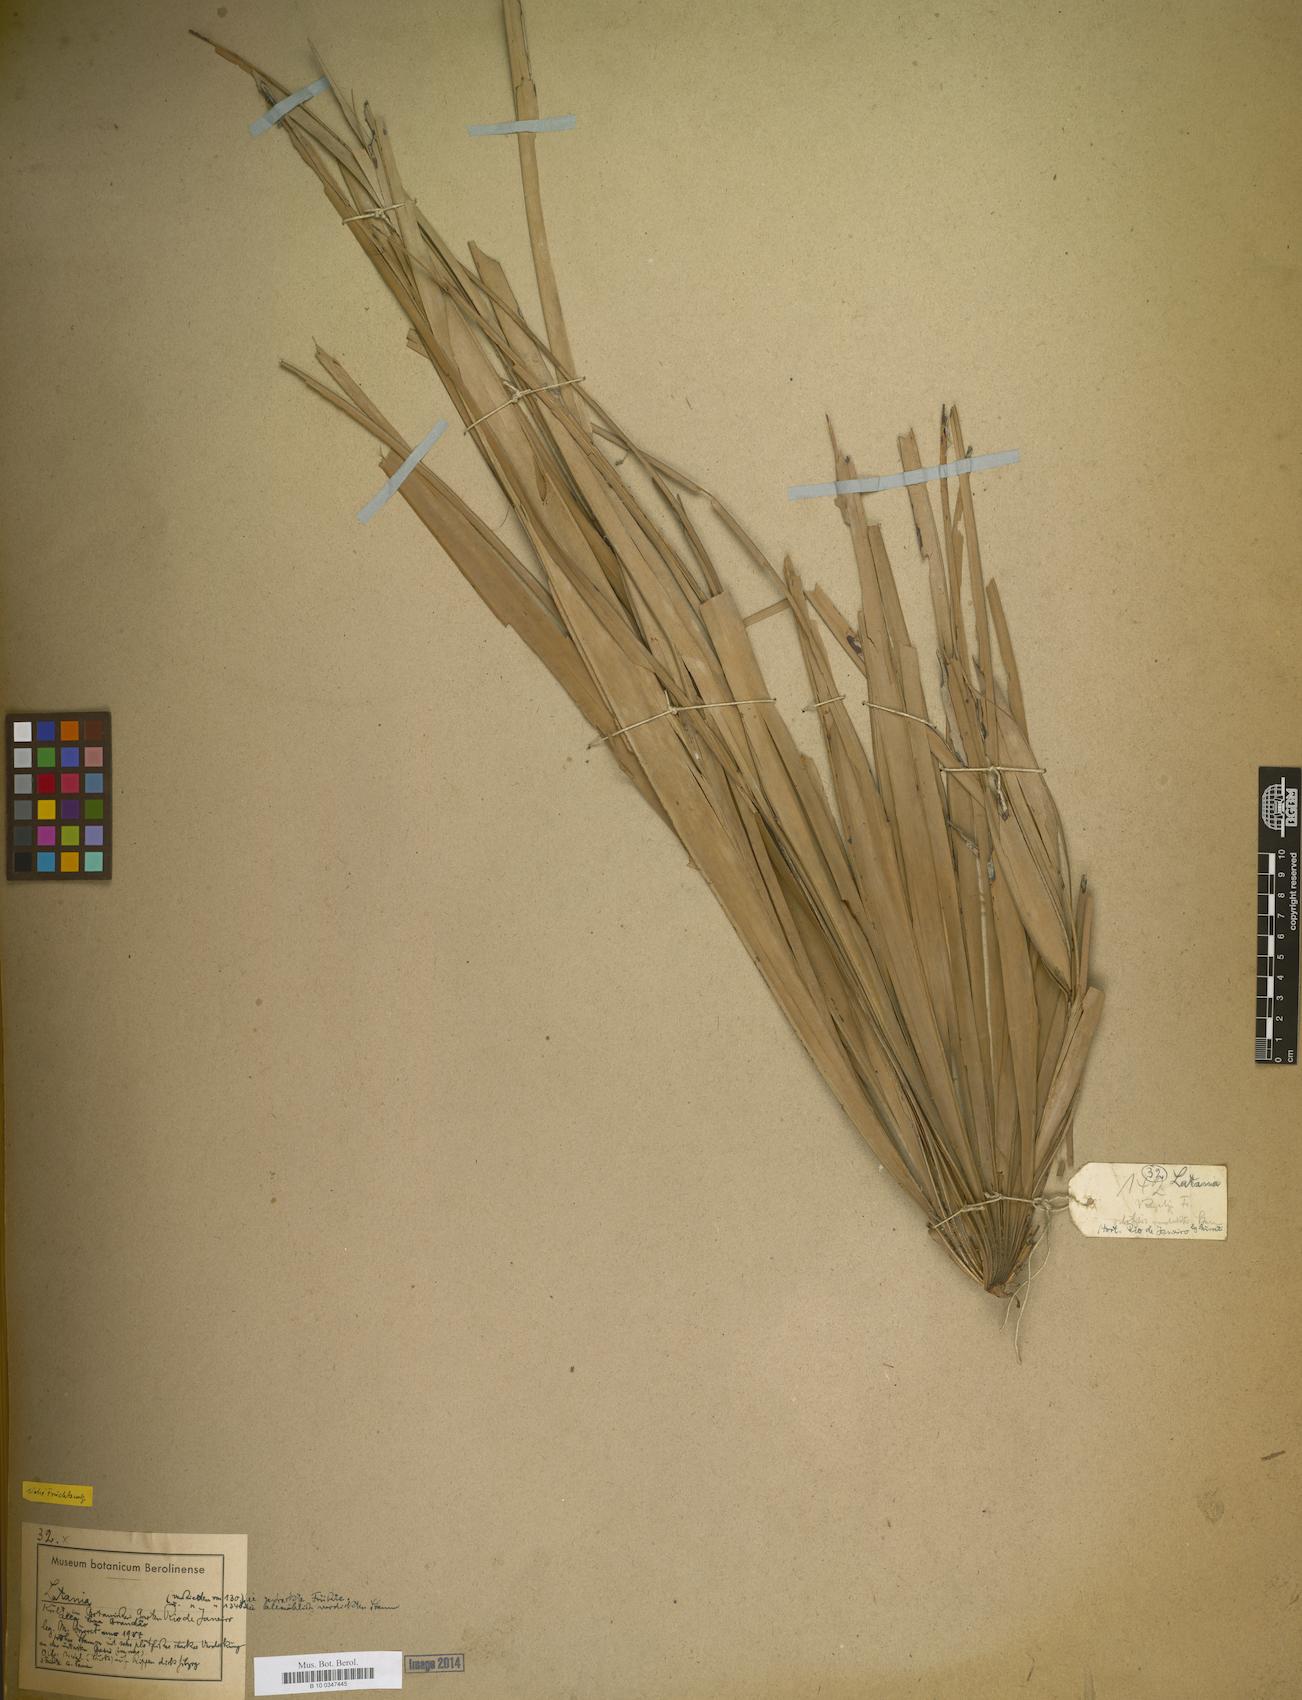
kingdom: Plantae
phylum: Tracheophyta
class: Liliopsida
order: Arecales
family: Arecaceae
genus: Latania
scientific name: Latania
